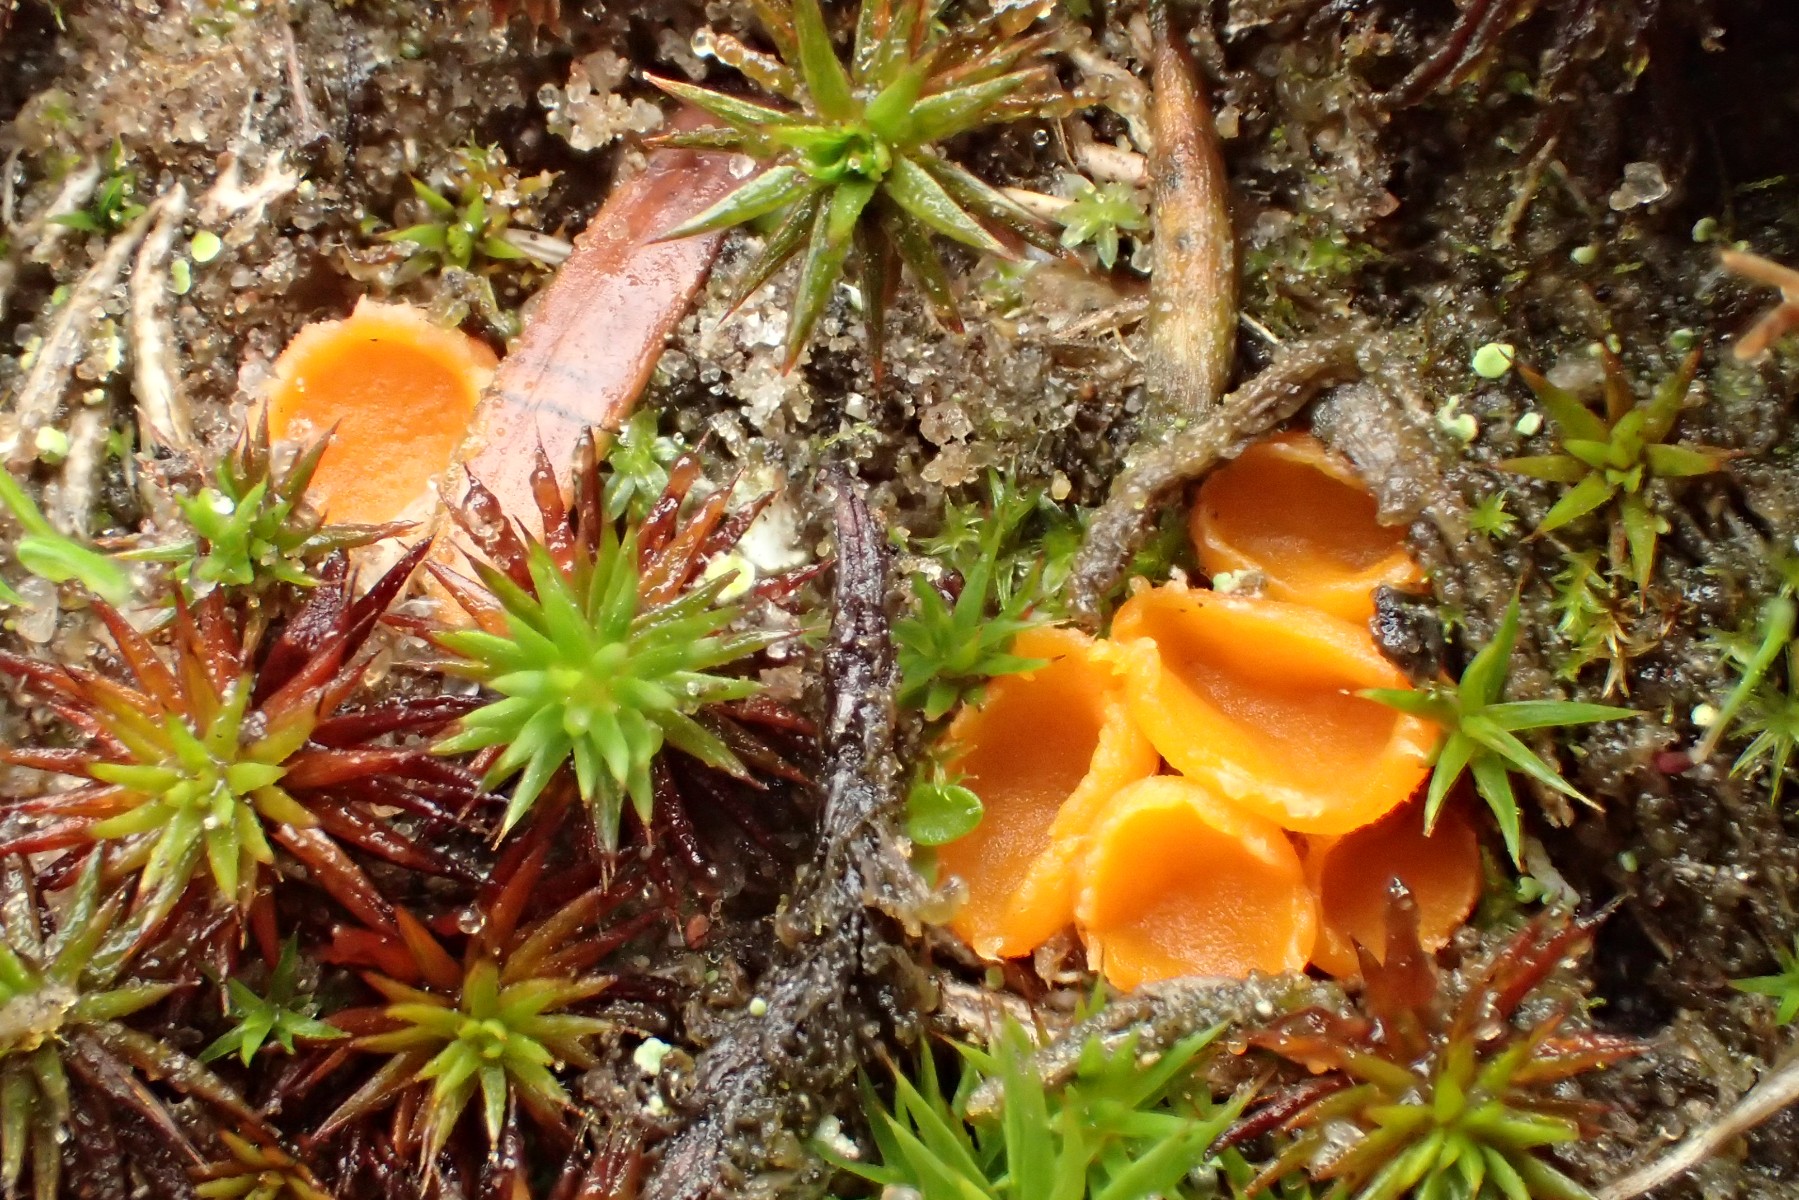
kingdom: Fungi
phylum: Ascomycota
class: Pezizomycetes
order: Pezizales
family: Pyronemataceae
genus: Neottiella
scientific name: Neottiella rutilans
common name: jomfruhår-mosbæger
